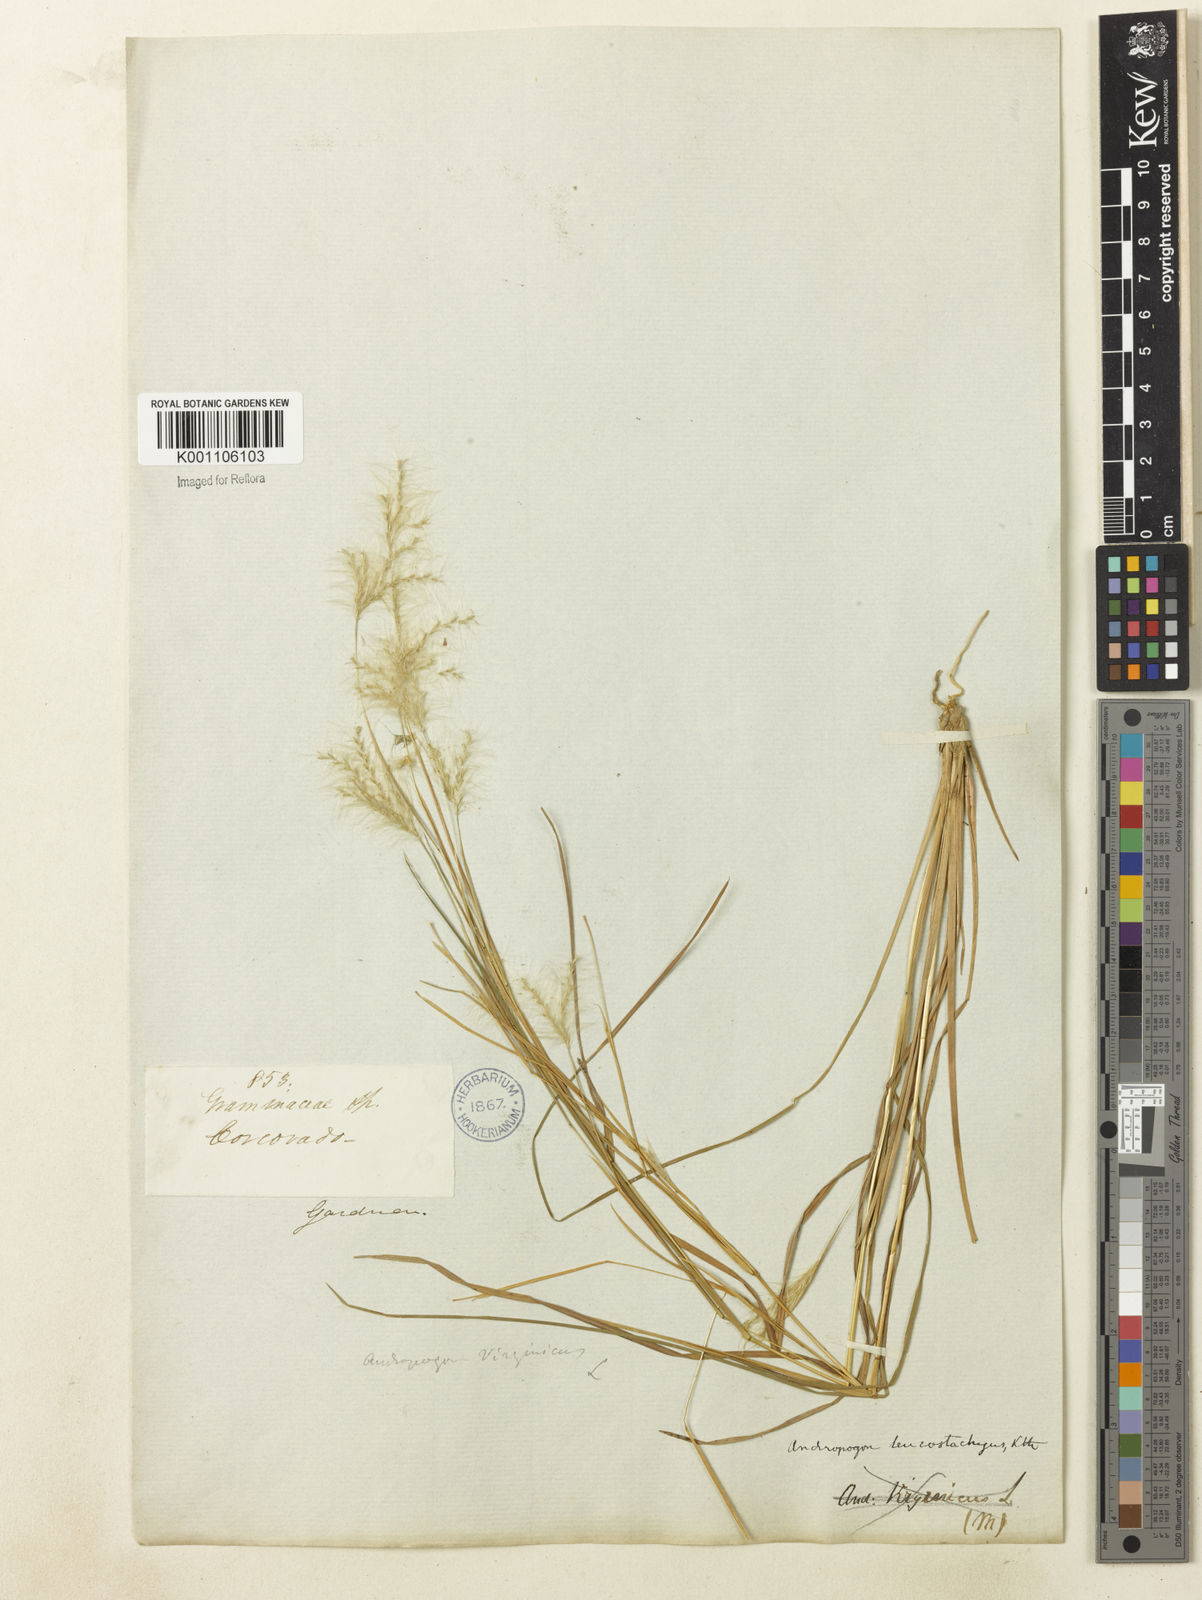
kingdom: Plantae
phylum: Tracheophyta
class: Liliopsida
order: Poales
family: Poaceae
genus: Andropogon
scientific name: Andropogon leucostachyus
